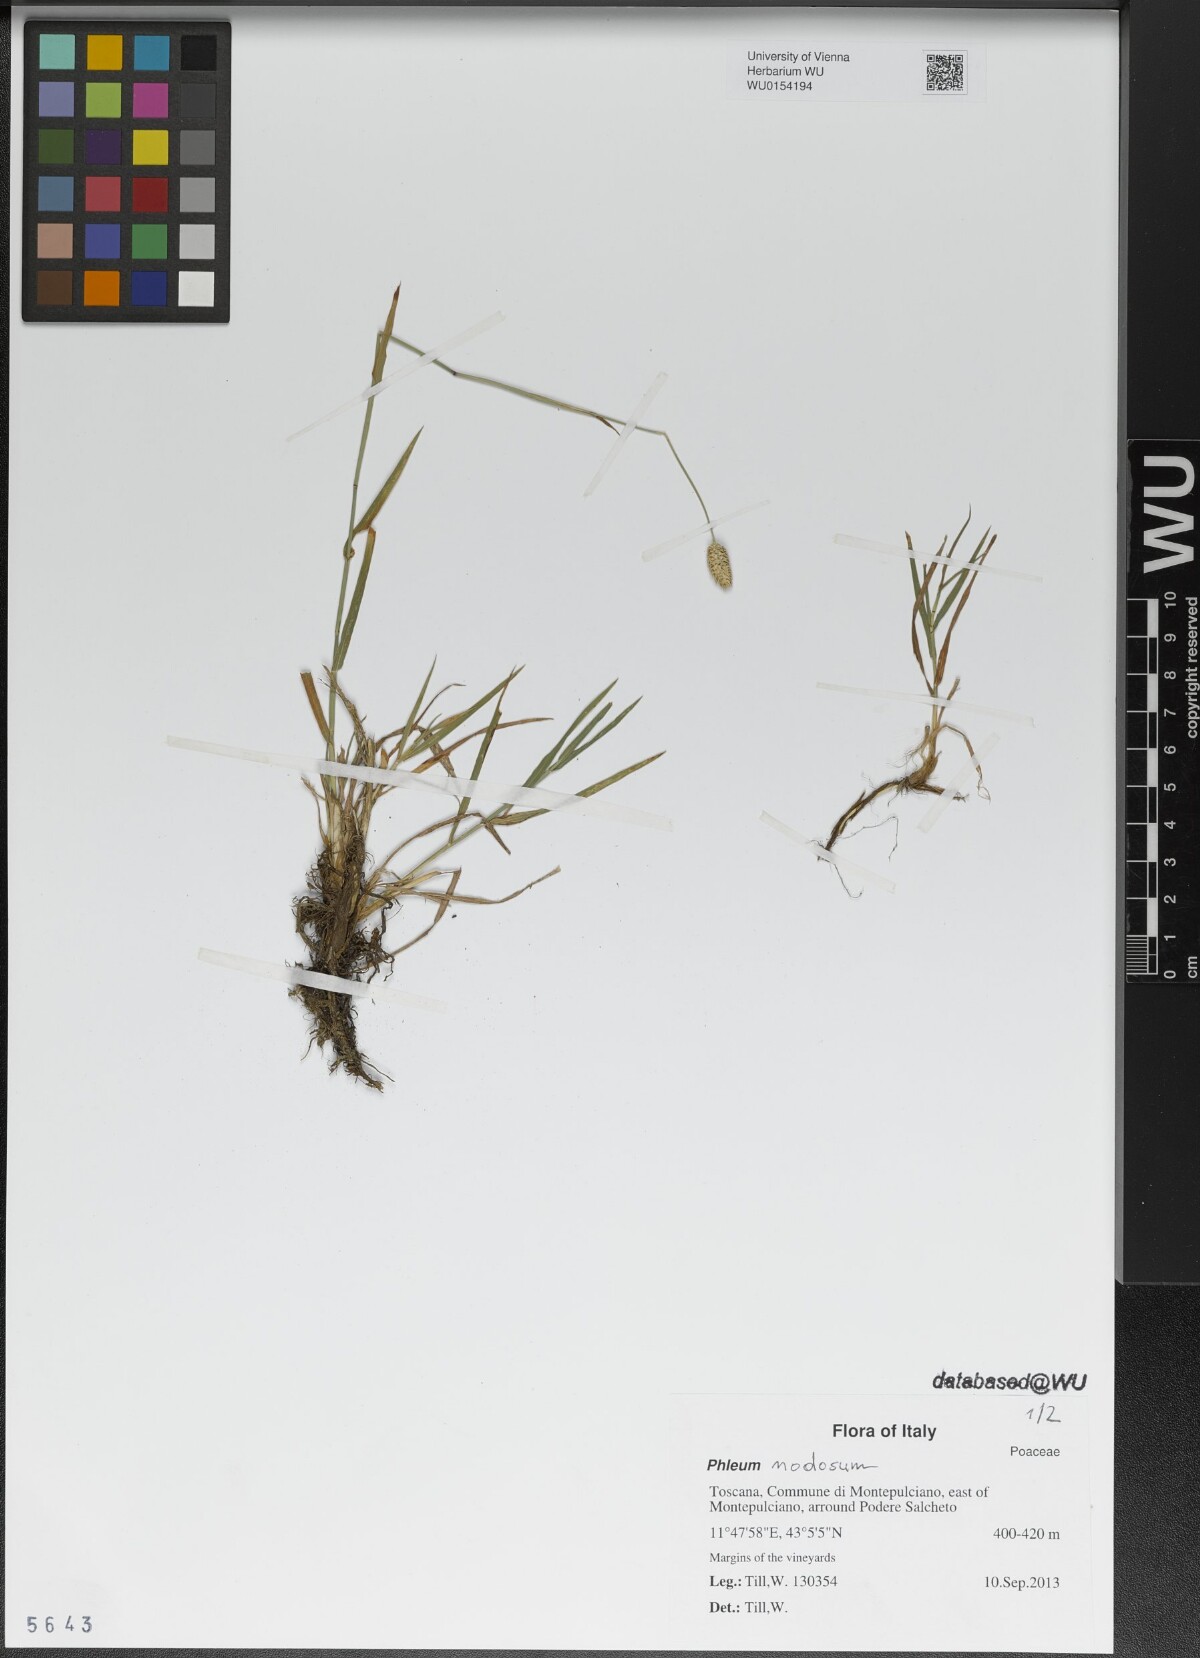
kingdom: Plantae
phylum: Tracheophyta
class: Liliopsida
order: Poales
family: Poaceae
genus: Phleum
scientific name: Phleum pratense
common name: Timothy grass
